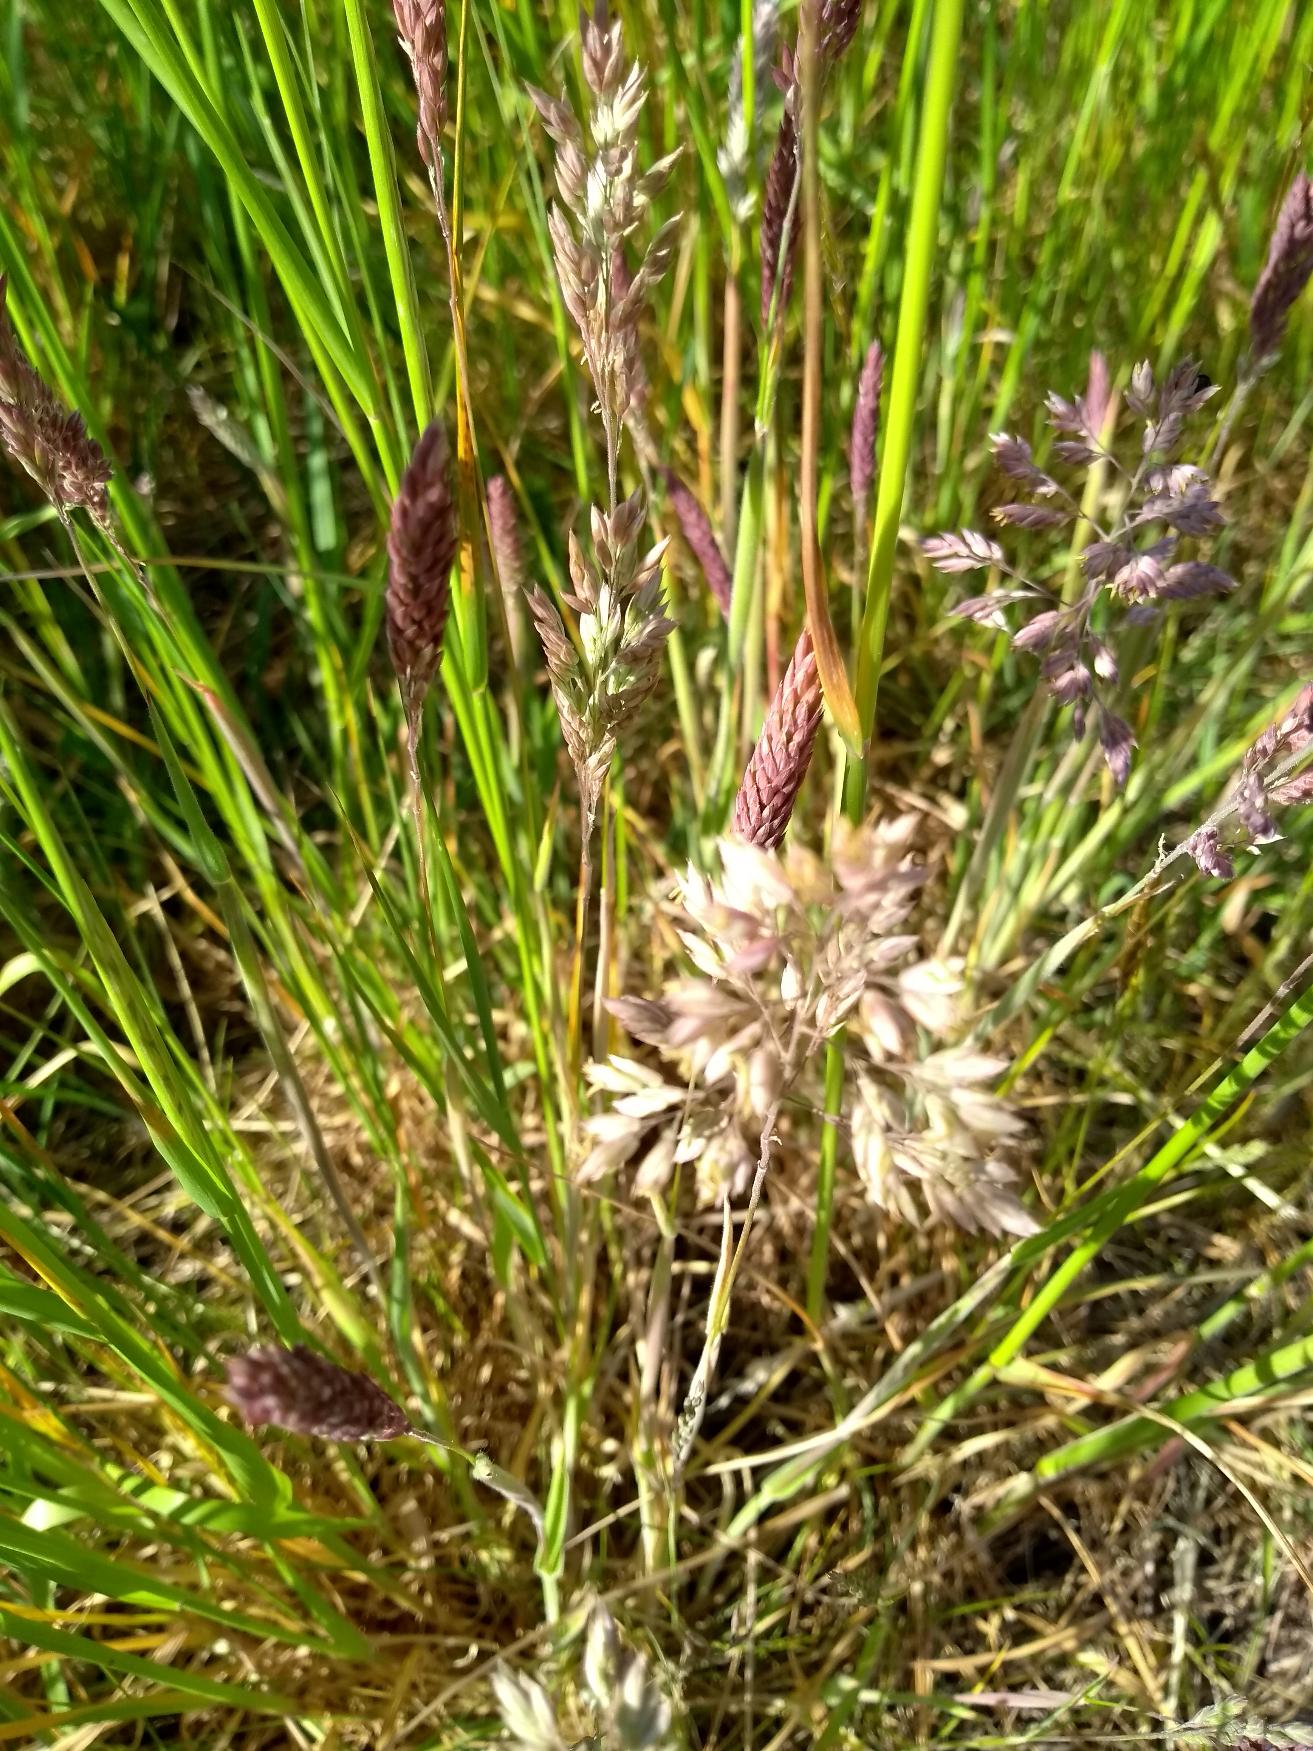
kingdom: Plantae
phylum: Tracheophyta
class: Liliopsida
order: Poales
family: Poaceae
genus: Holcus
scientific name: Holcus lanatus
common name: Fløjlsgræs
